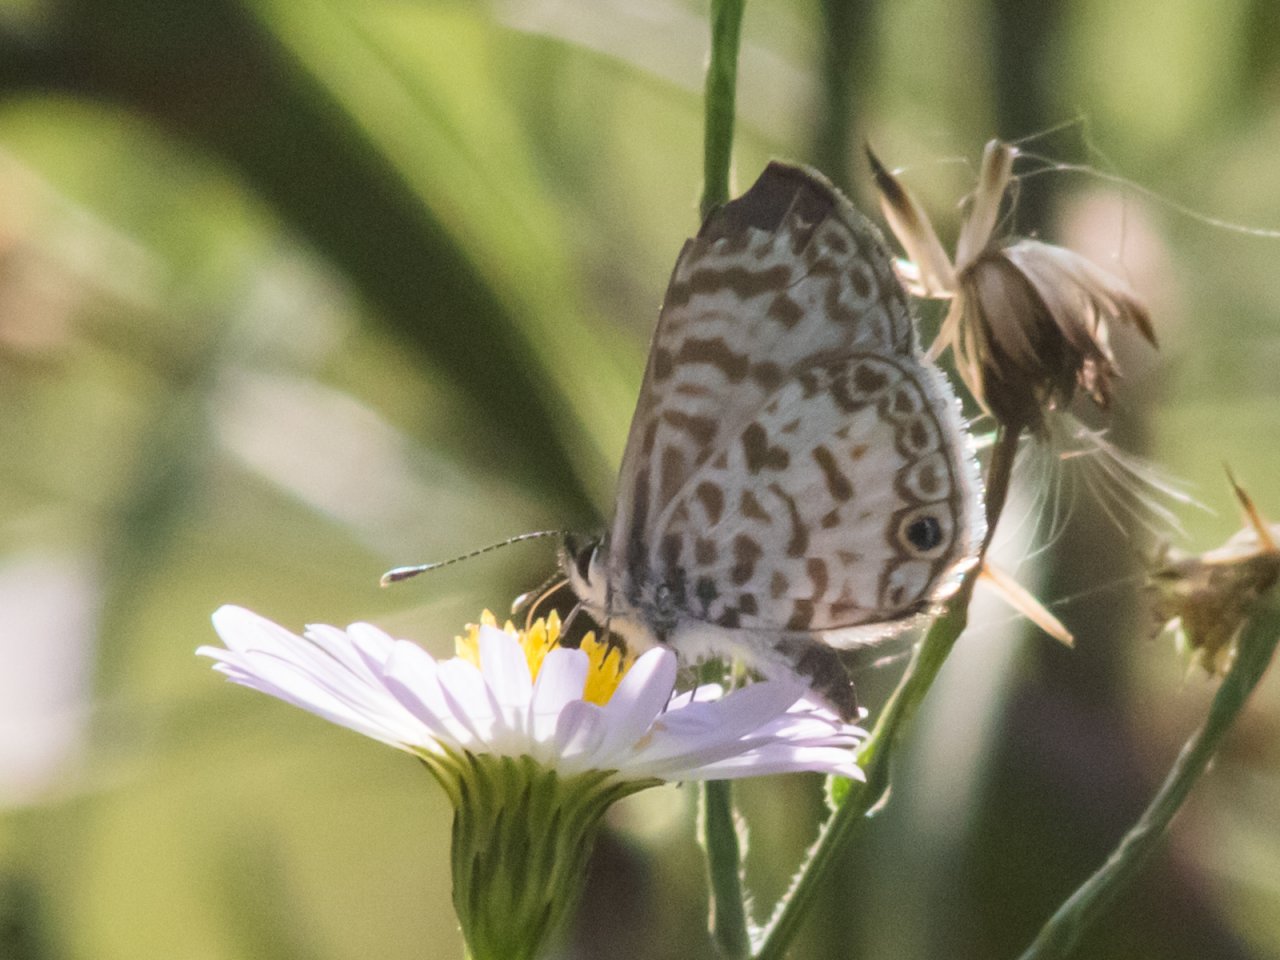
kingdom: Animalia
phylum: Arthropoda
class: Insecta
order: Lepidoptera
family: Lycaenidae
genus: Leptotes
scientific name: Leptotes cassius
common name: Cassius Blue
